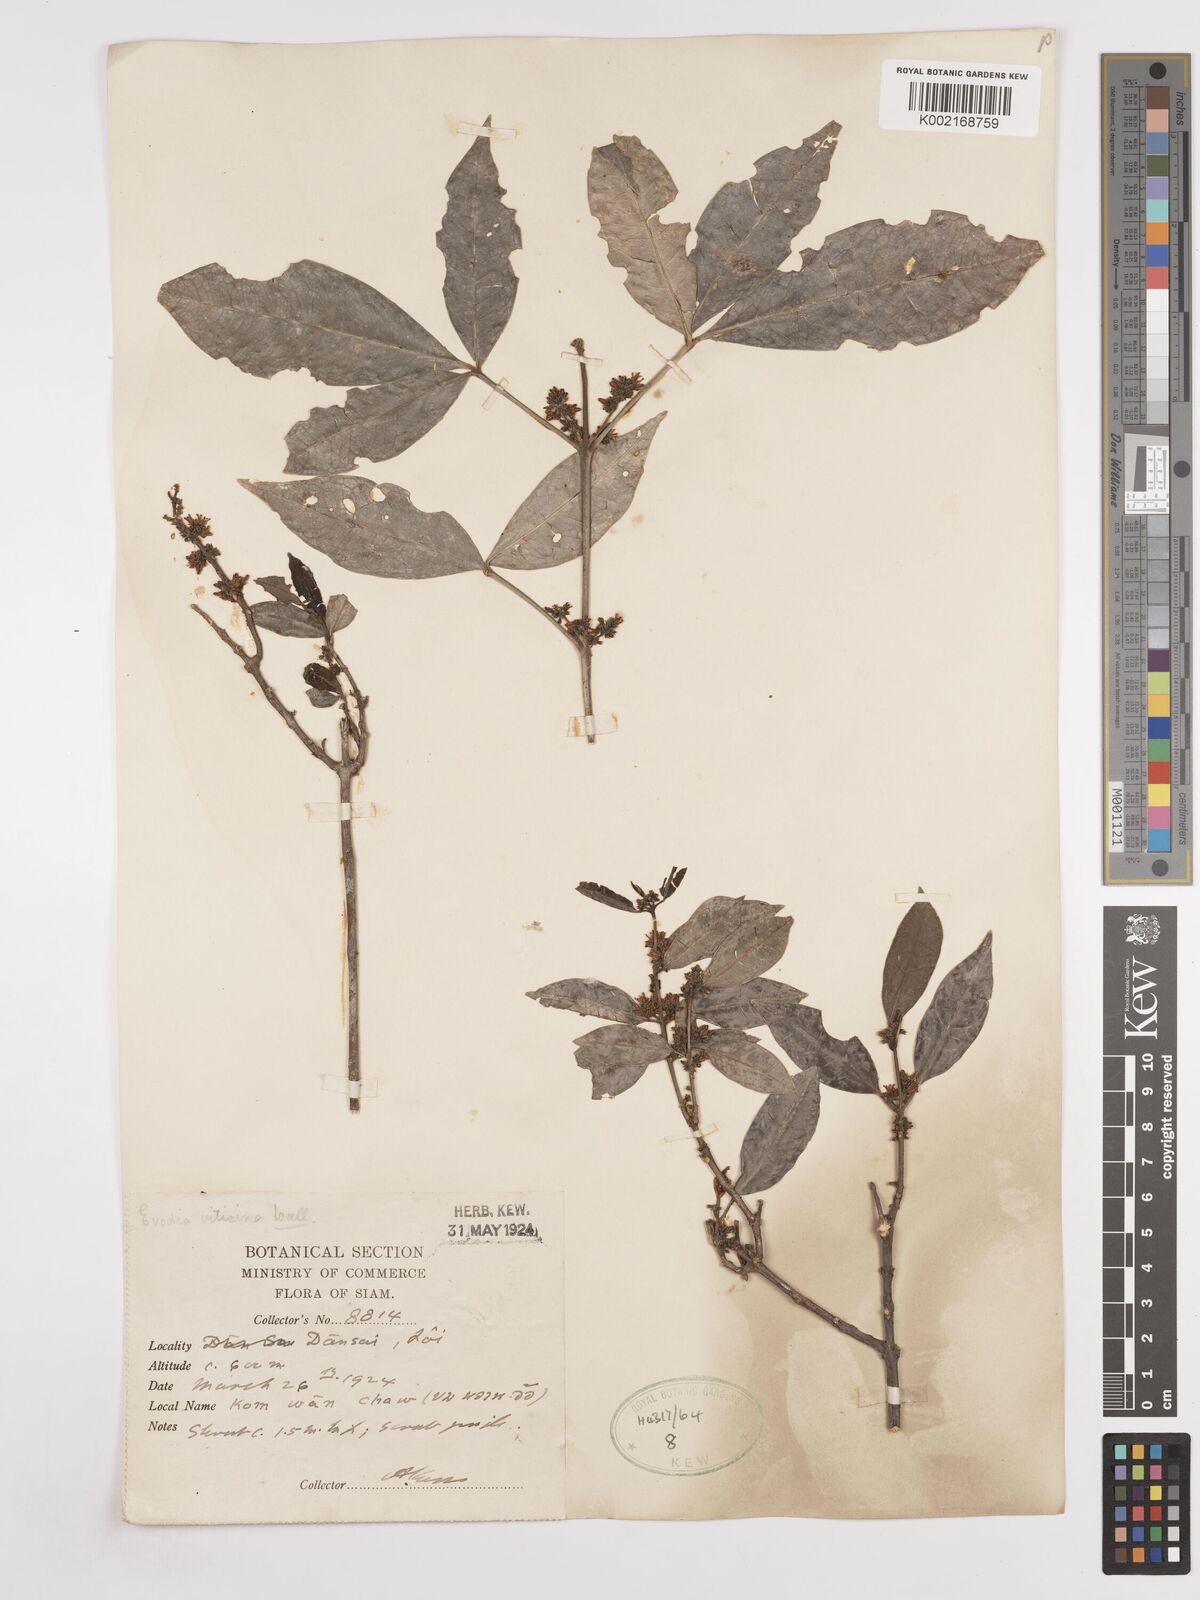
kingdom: Plantae
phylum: Tracheophyta
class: Magnoliopsida
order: Sapindales
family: Rutaceae
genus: Euodia
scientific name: Euodia
